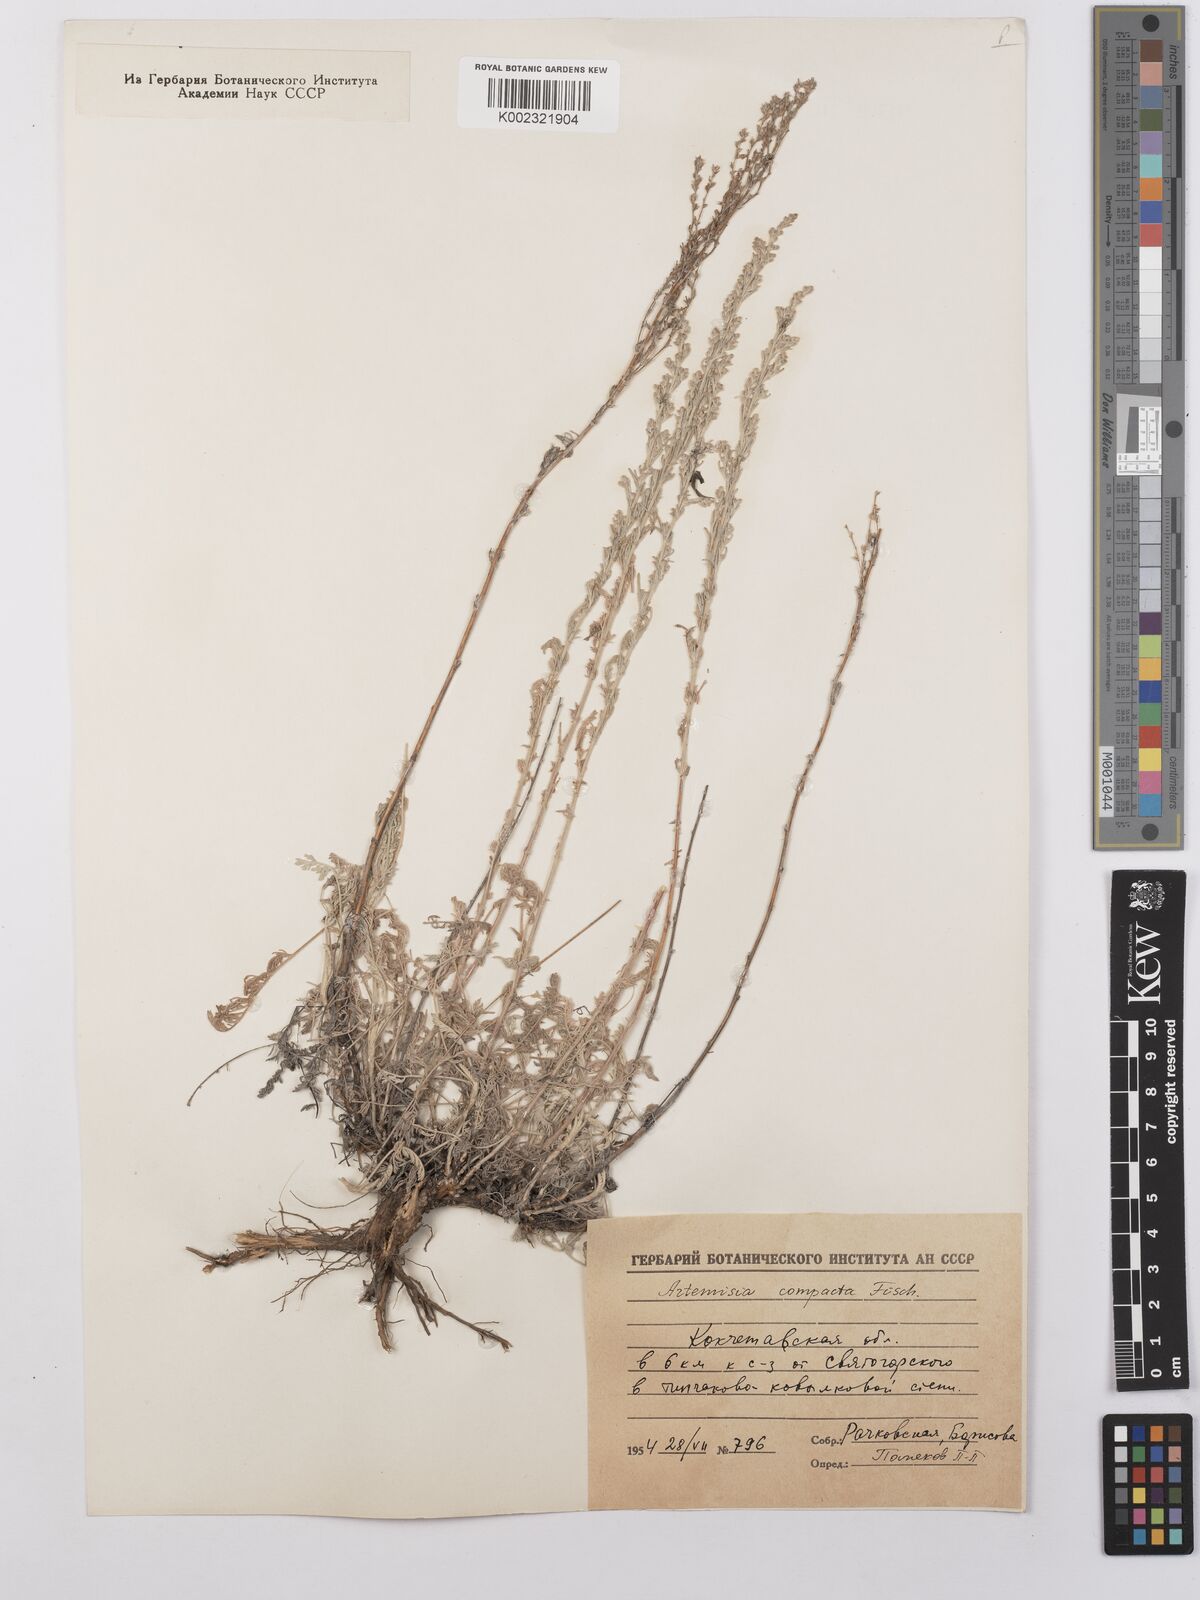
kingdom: Plantae
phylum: Tracheophyta
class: Magnoliopsida
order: Asterales
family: Asteraceae
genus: Artemisia
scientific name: Artemisia compacta
